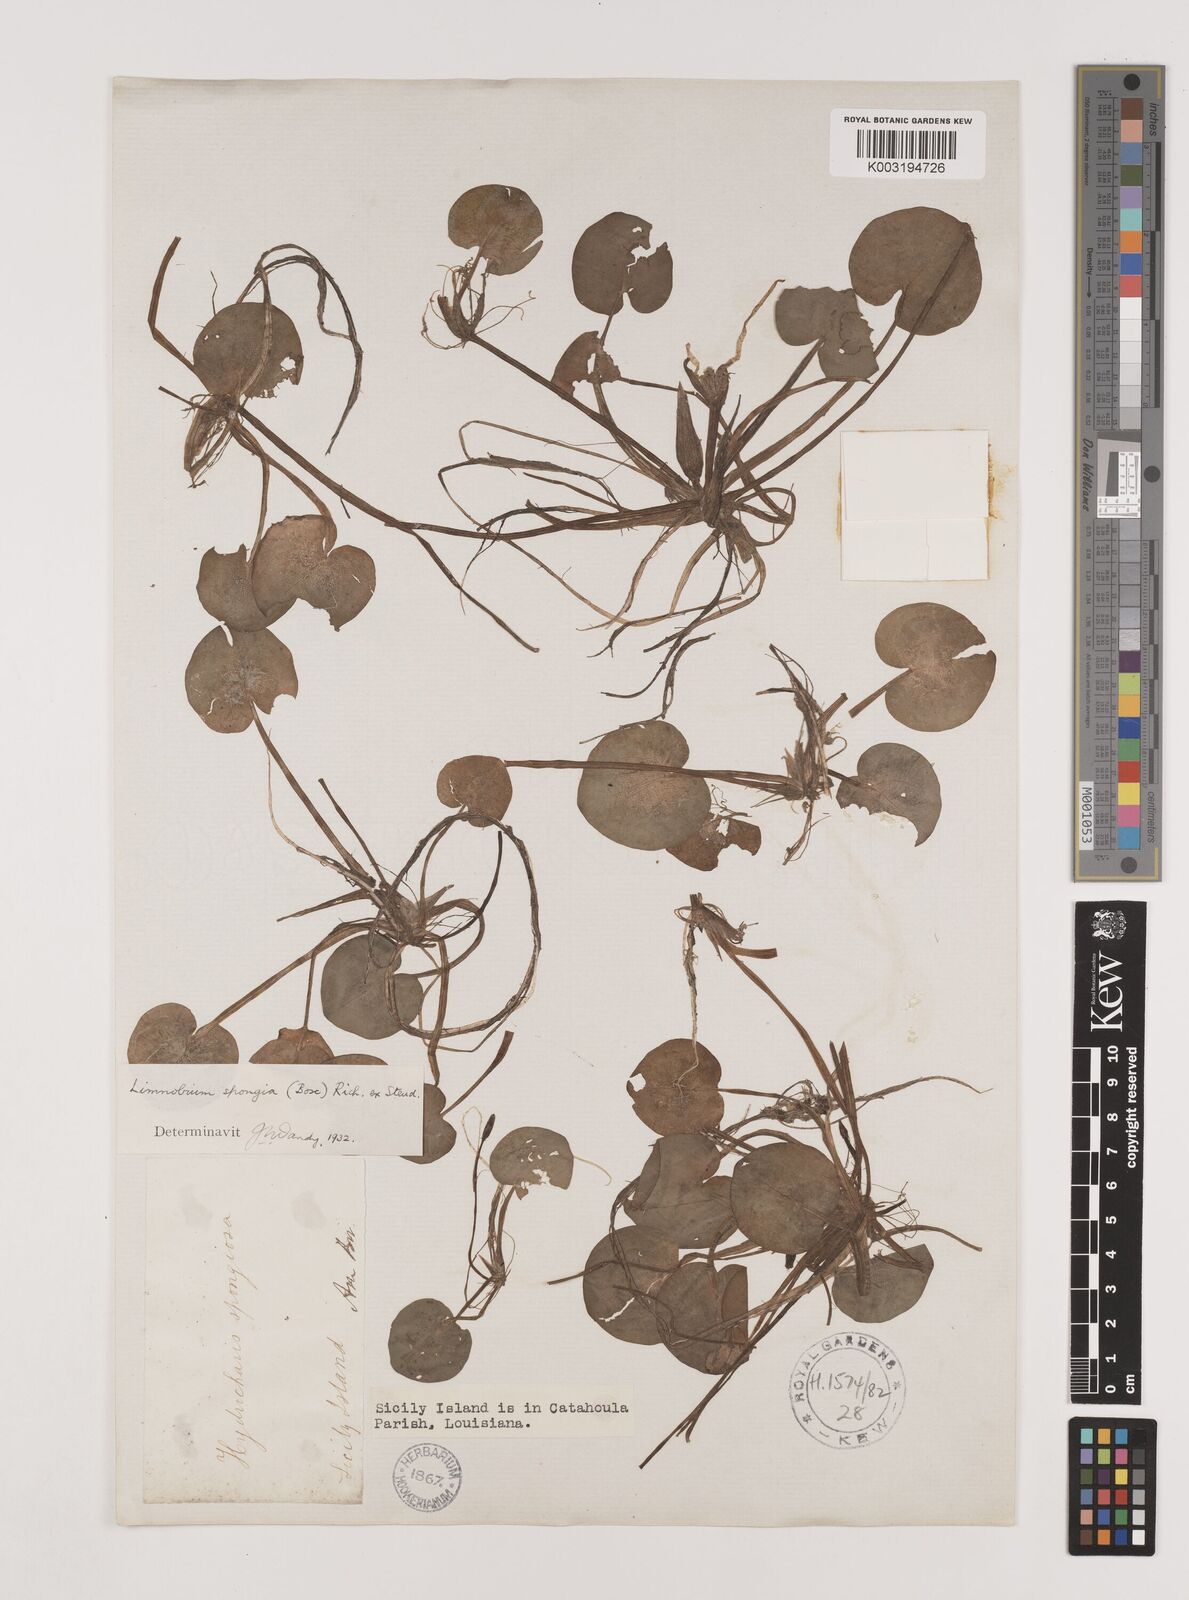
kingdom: Plantae
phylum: Tracheophyta
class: Liliopsida
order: Alismatales
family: Hydrocharitaceae
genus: Hydrocharis
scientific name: Hydrocharis spongia
